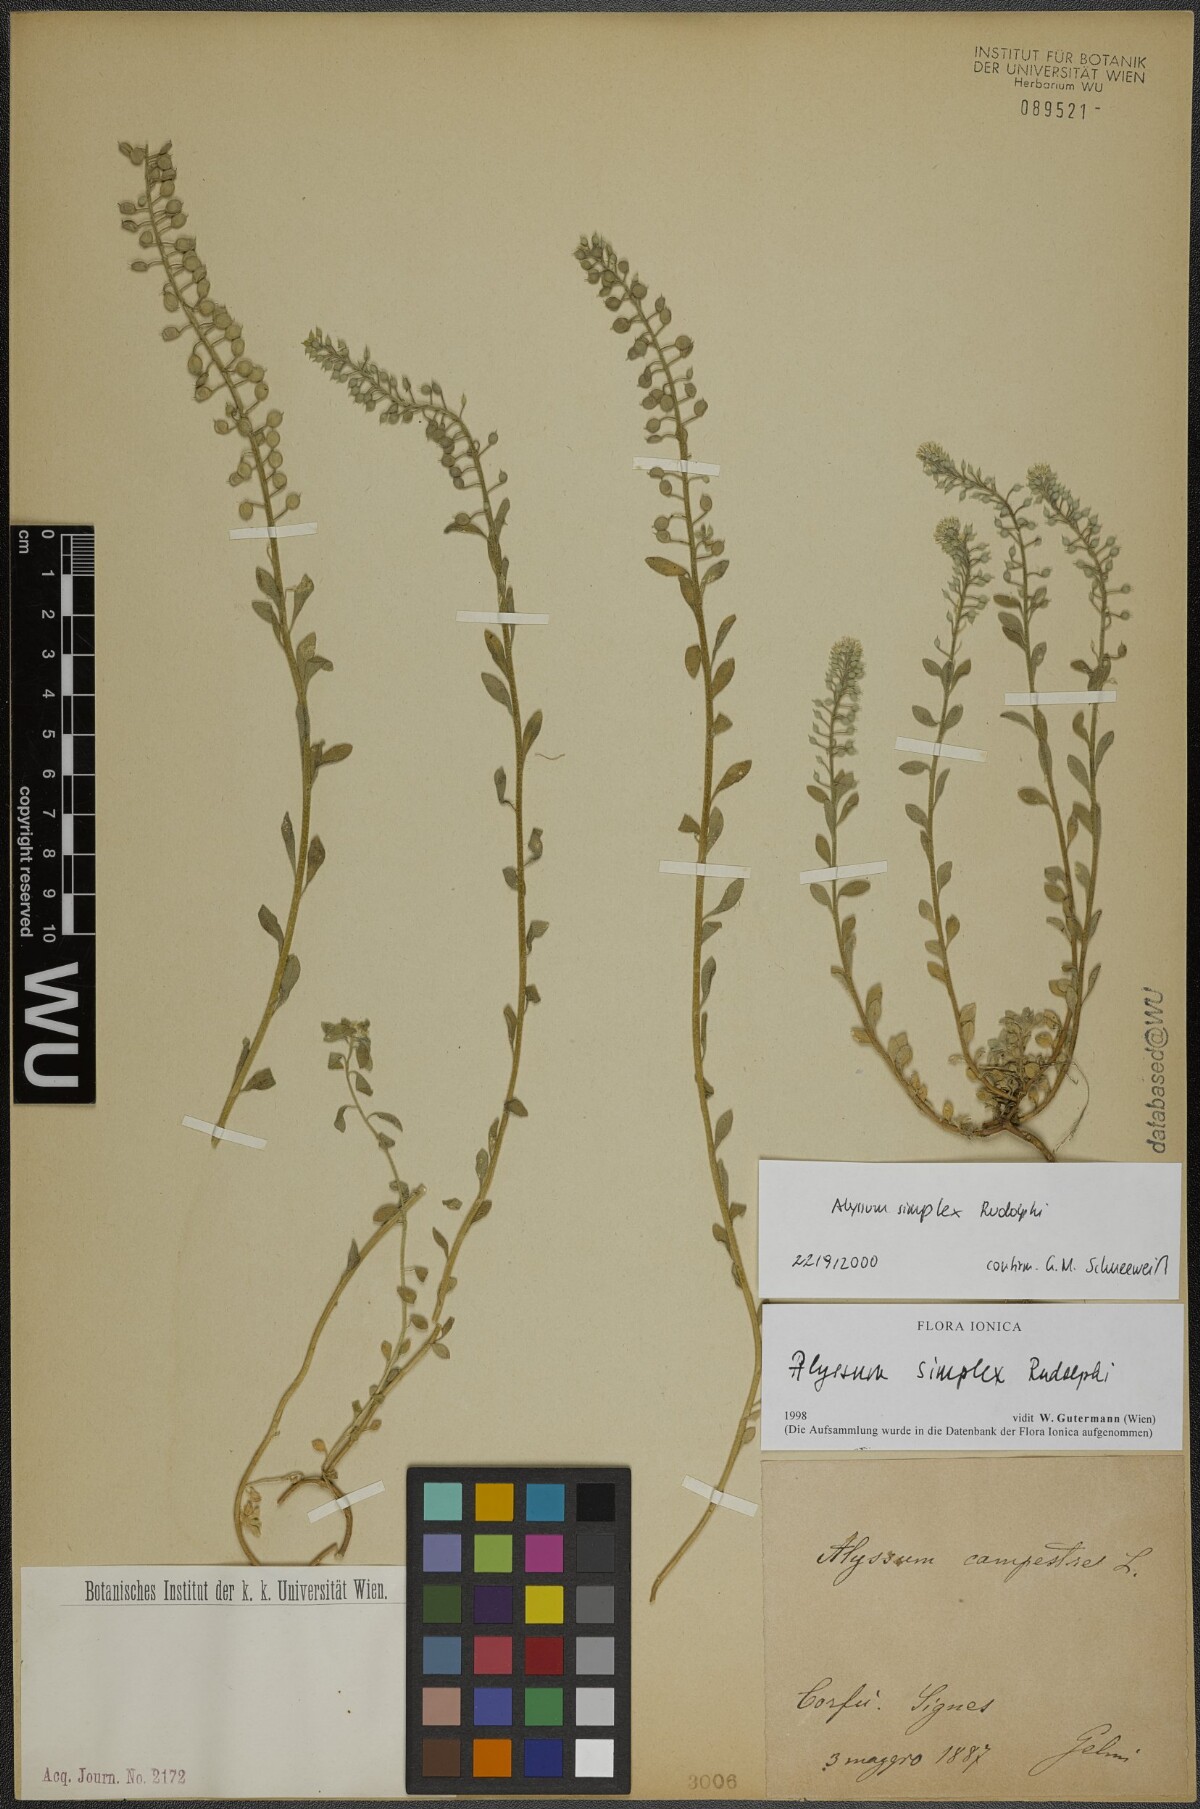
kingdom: Plantae
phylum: Tracheophyta
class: Magnoliopsida
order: Brassicales
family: Brassicaceae
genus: Alyssum
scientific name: Alyssum simplex
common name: Alyssum
